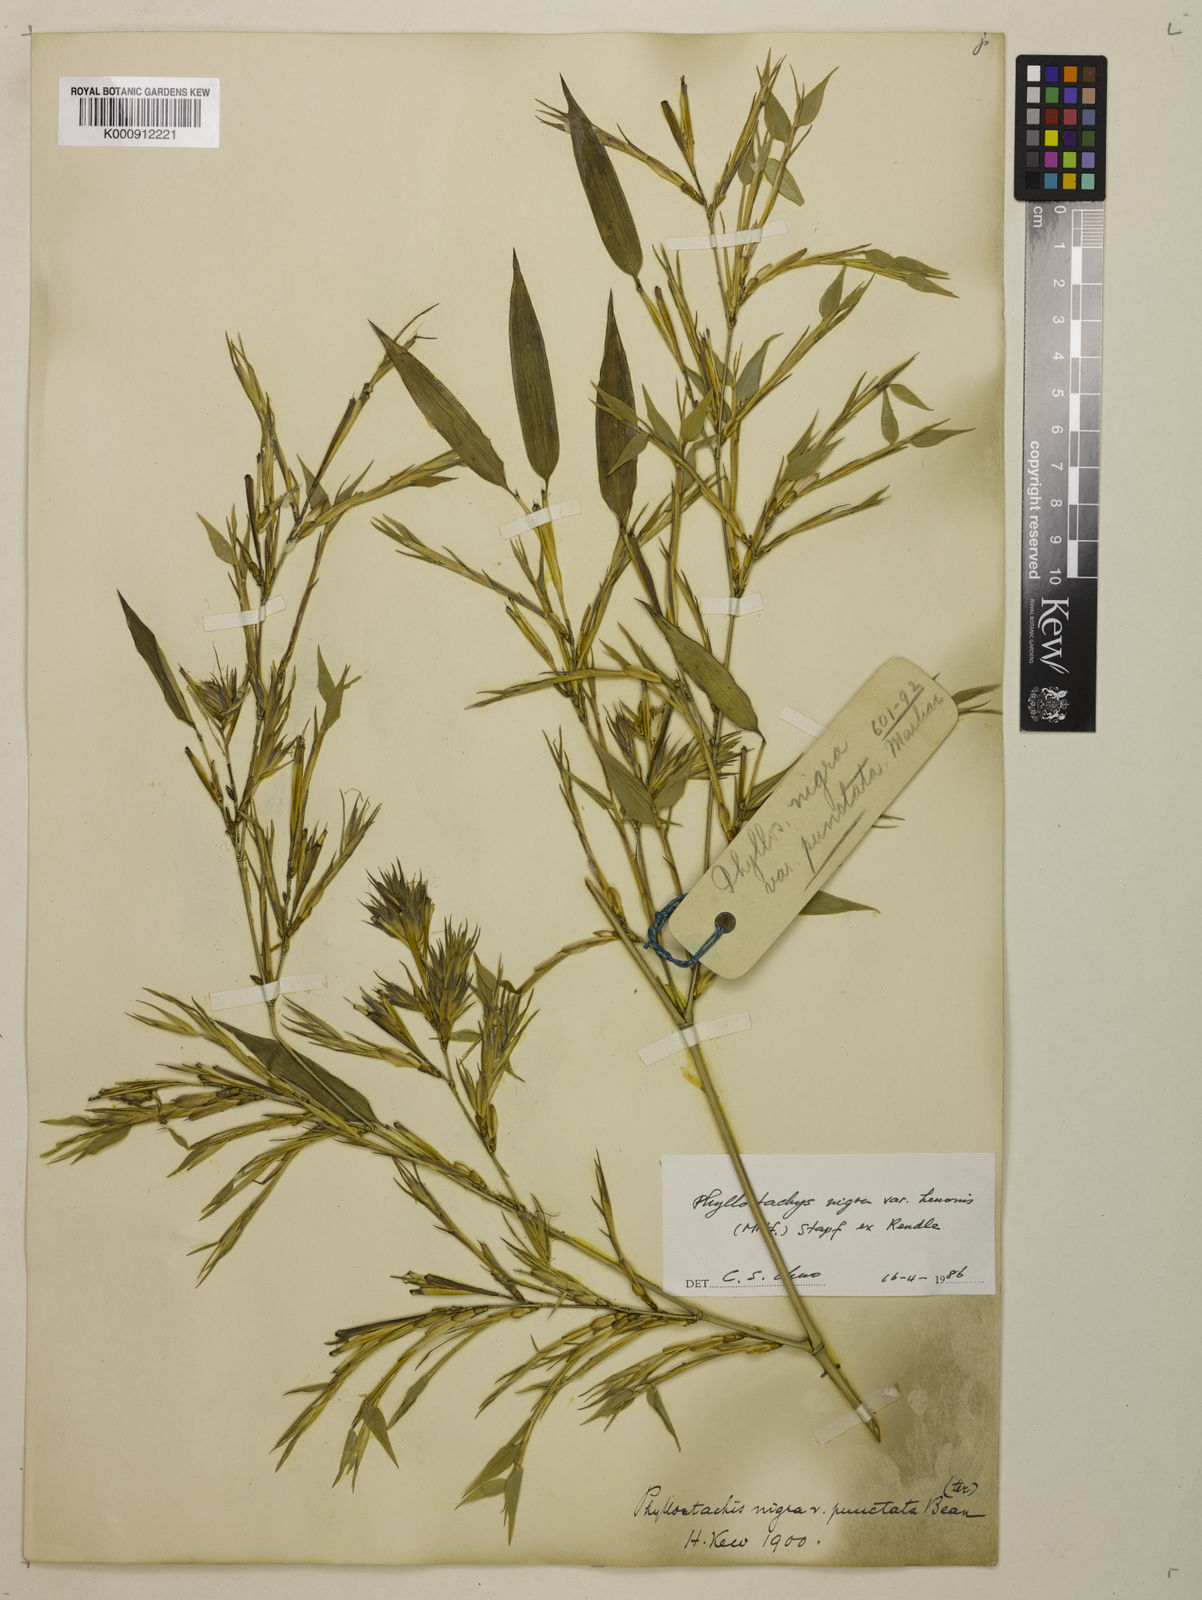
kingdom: Plantae
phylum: Tracheophyta
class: Liliopsida
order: Poales
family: Poaceae
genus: Phyllostachys
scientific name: Phyllostachys nigra
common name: Black bamboo
